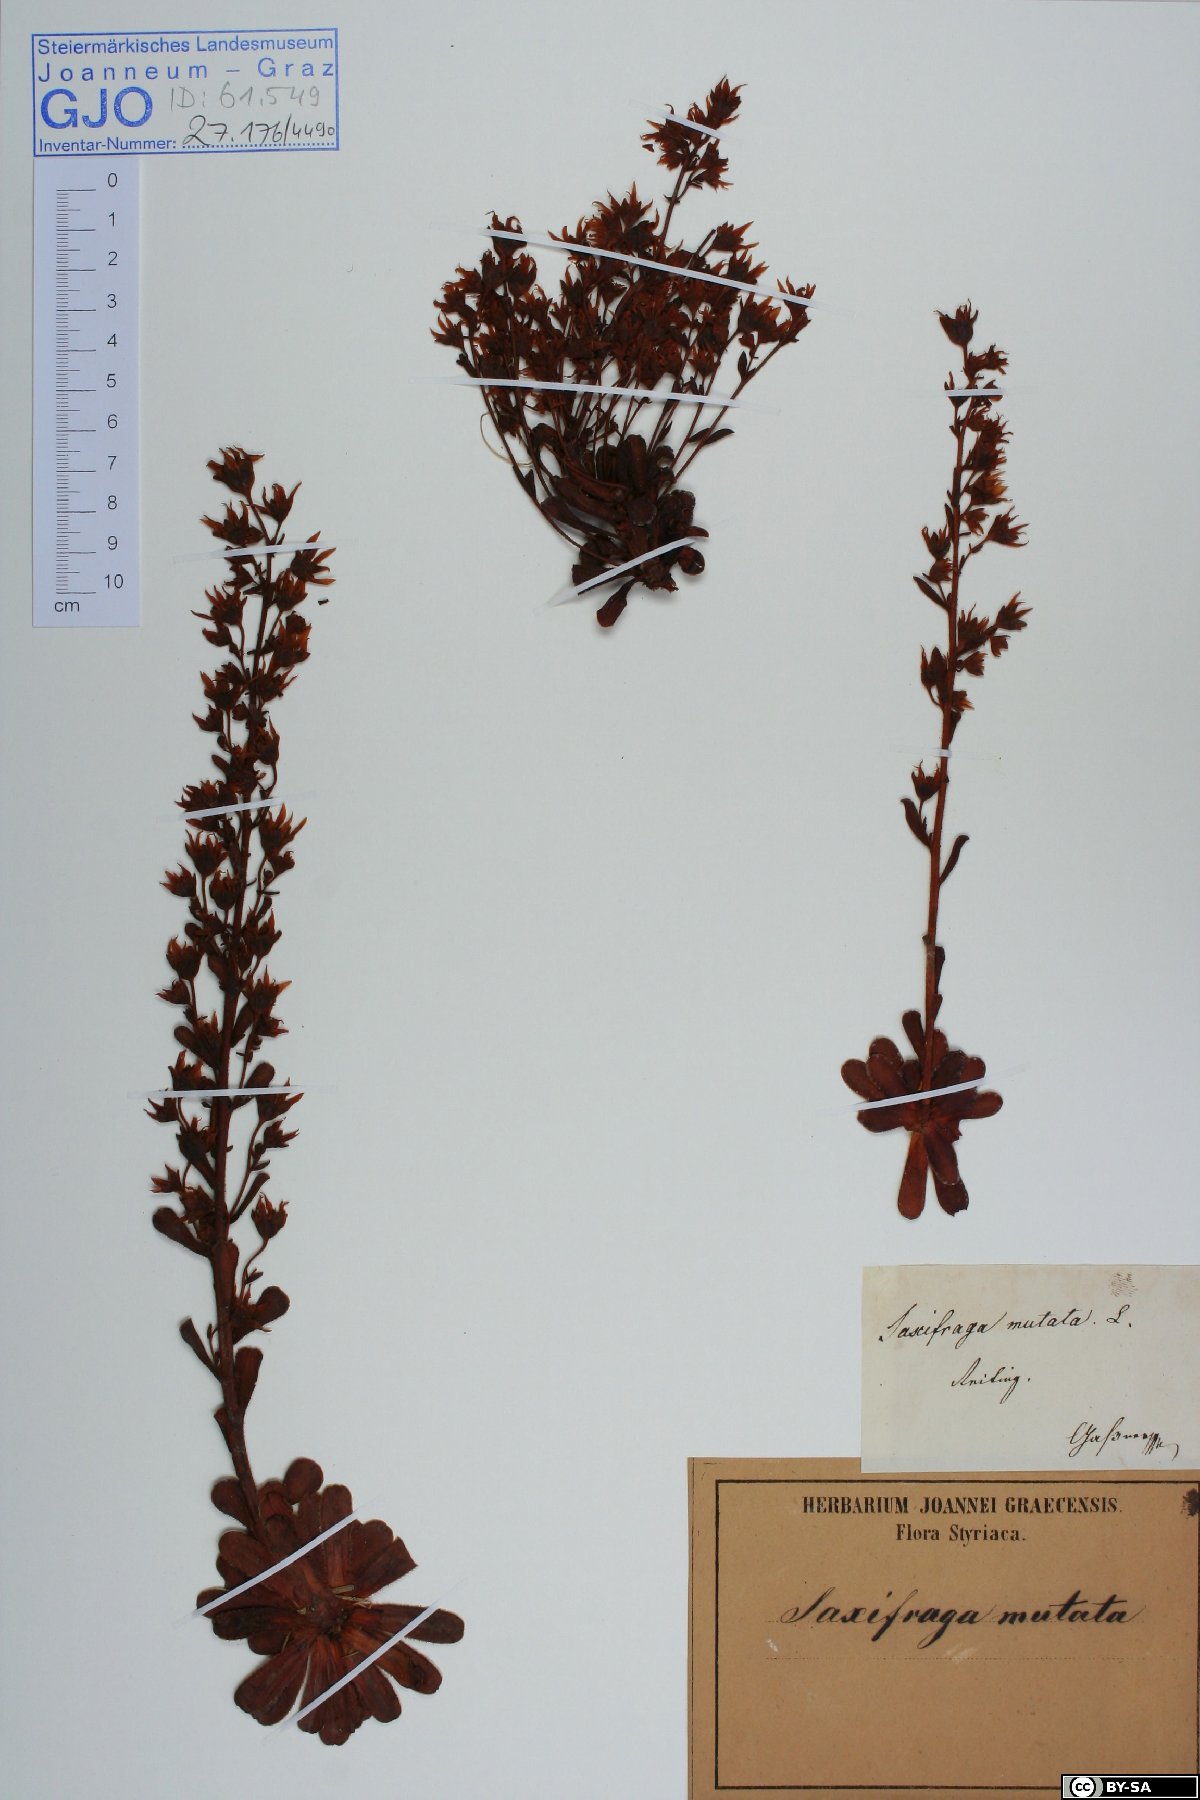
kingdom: Plantae
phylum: Tracheophyta
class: Magnoliopsida
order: Saxifragales
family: Saxifragaceae
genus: Saxifraga
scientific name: Saxifraga mutata
